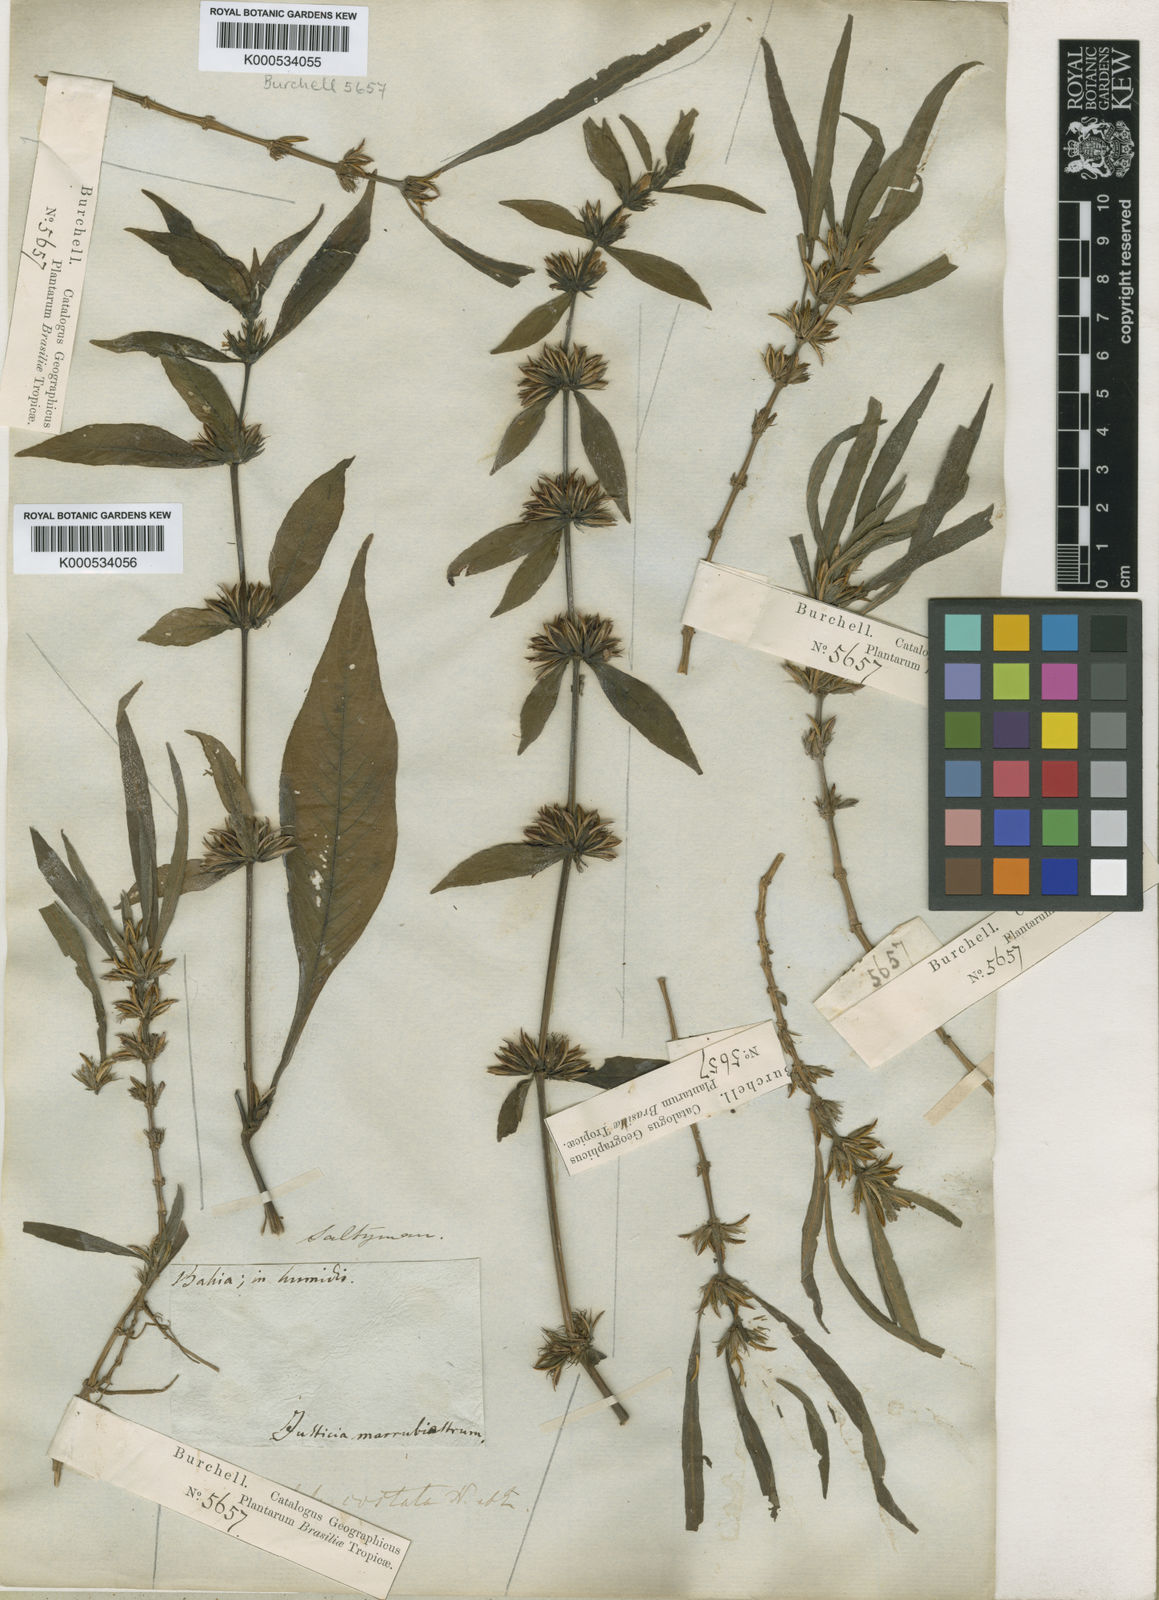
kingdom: Plantae
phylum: Tracheophyta
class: Magnoliopsida
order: Lamiales
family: Acanthaceae
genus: Hygrophila
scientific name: Hygrophila costata
